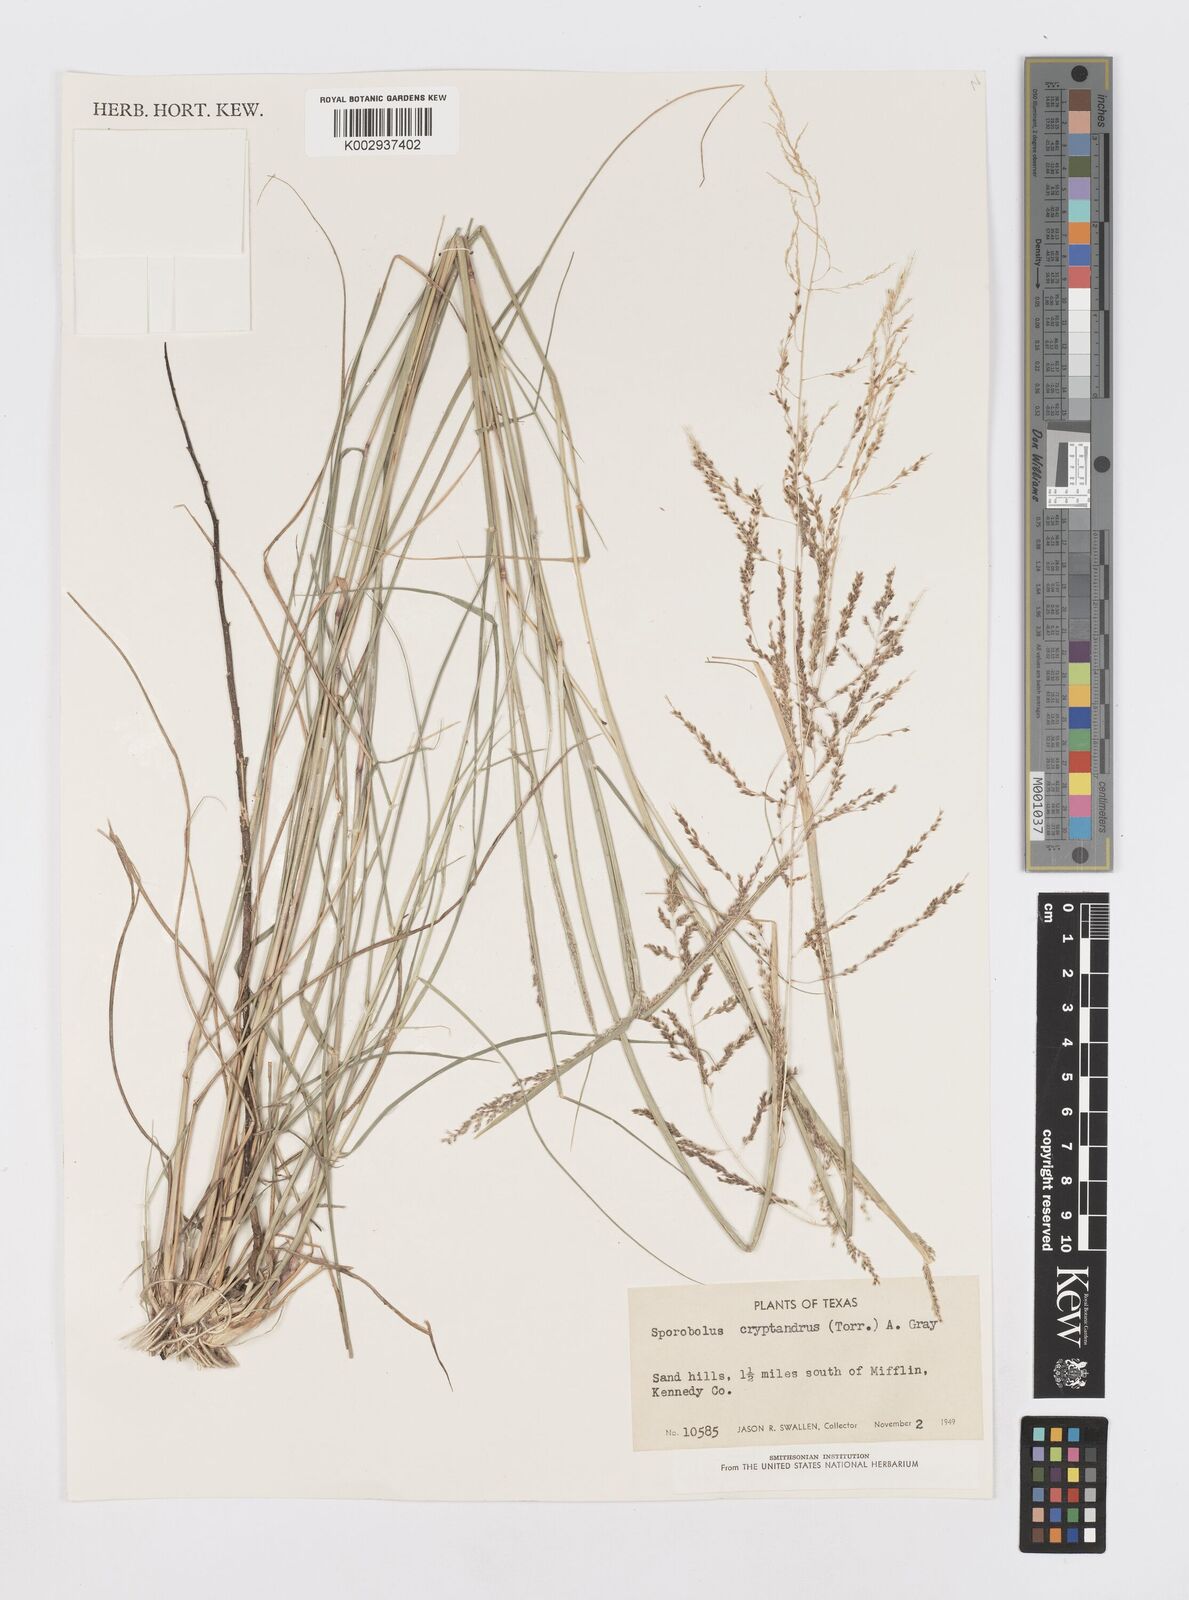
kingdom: Plantae
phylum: Tracheophyta
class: Liliopsida
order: Poales
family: Poaceae
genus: Sporobolus
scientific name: Sporobolus cryptandrus
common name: Sand dropseed
